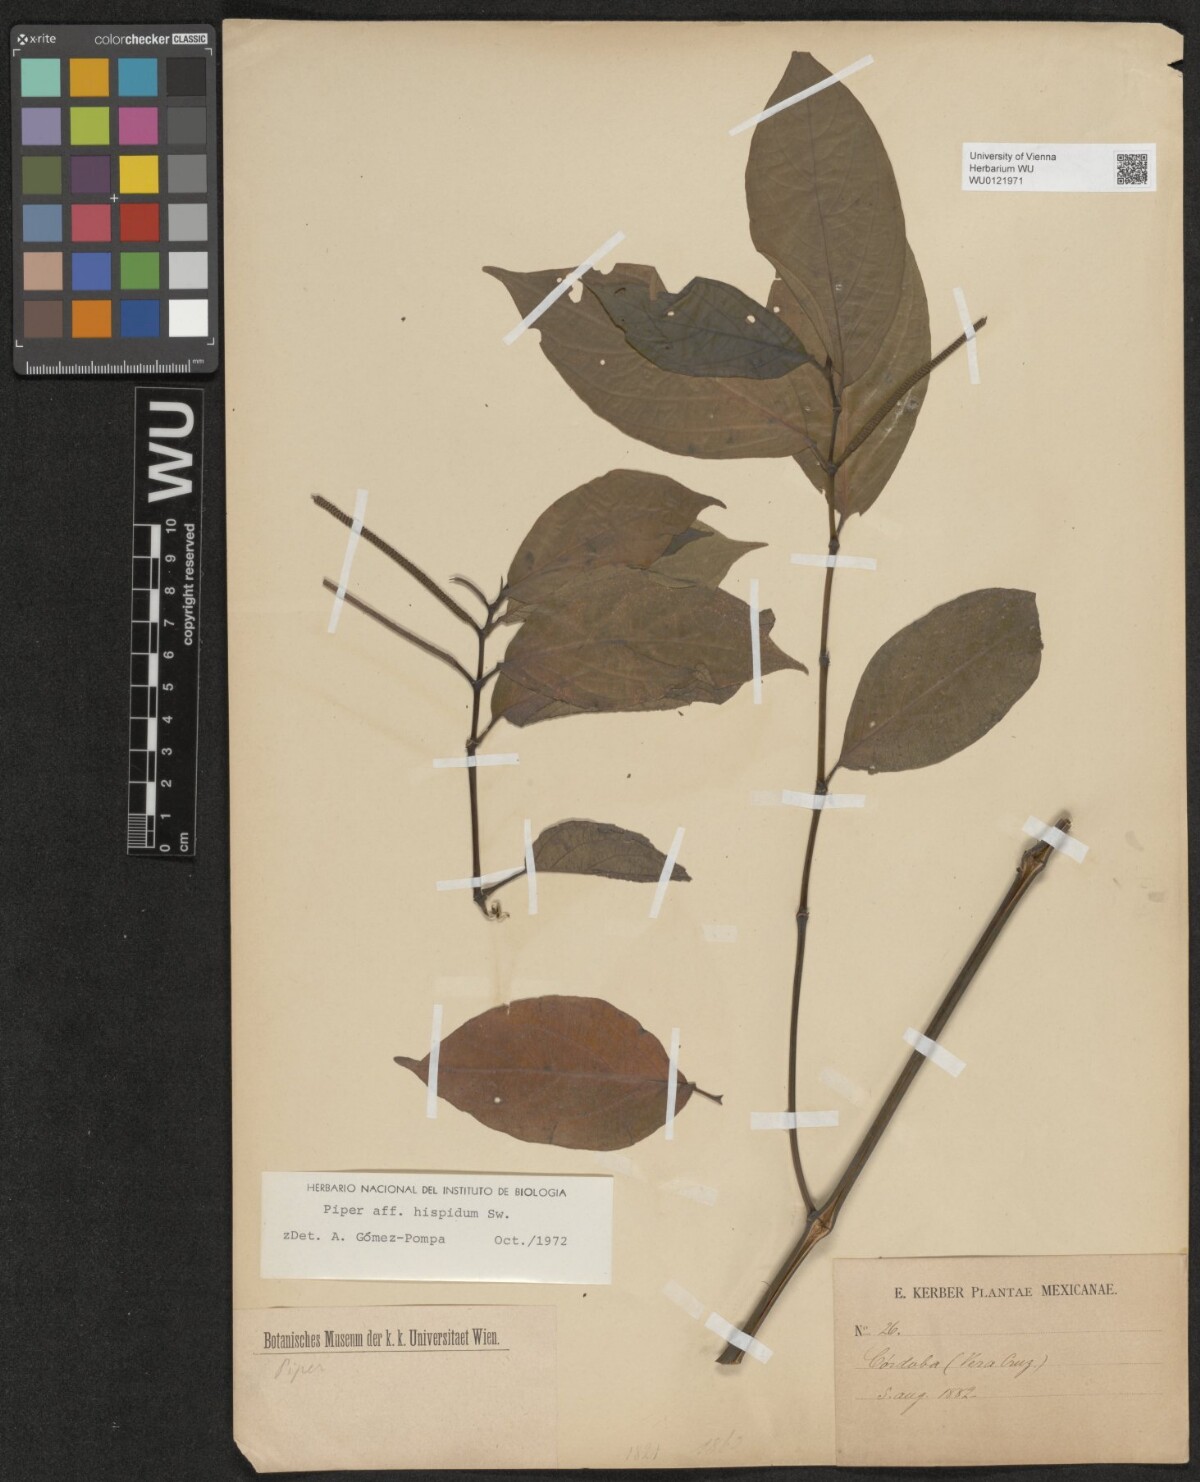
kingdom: Plantae
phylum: Tracheophyta
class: Magnoliopsida
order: Piperales
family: Piperaceae
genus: Piper
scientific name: Piper hispidum
